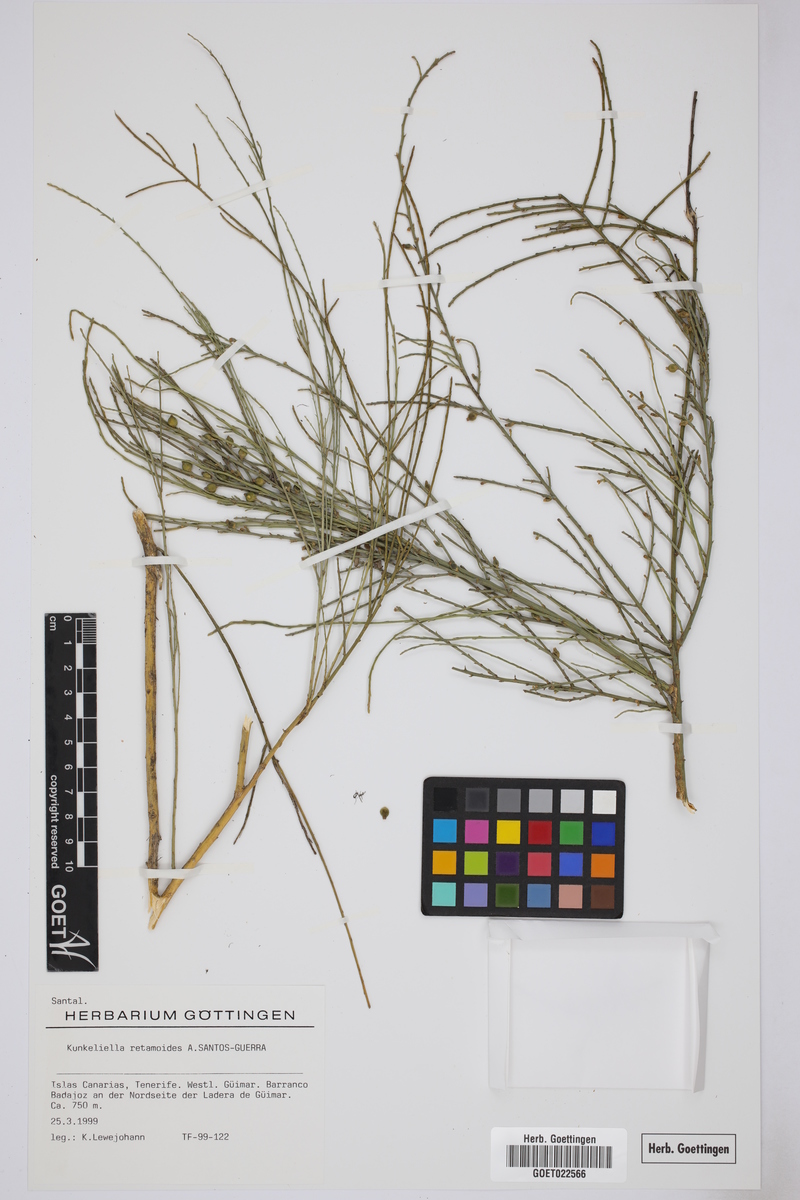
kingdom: Plantae
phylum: Tracheophyta
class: Magnoliopsida
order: Santalales
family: Thesiaceae
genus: Thesium
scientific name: Thesium retamoides
